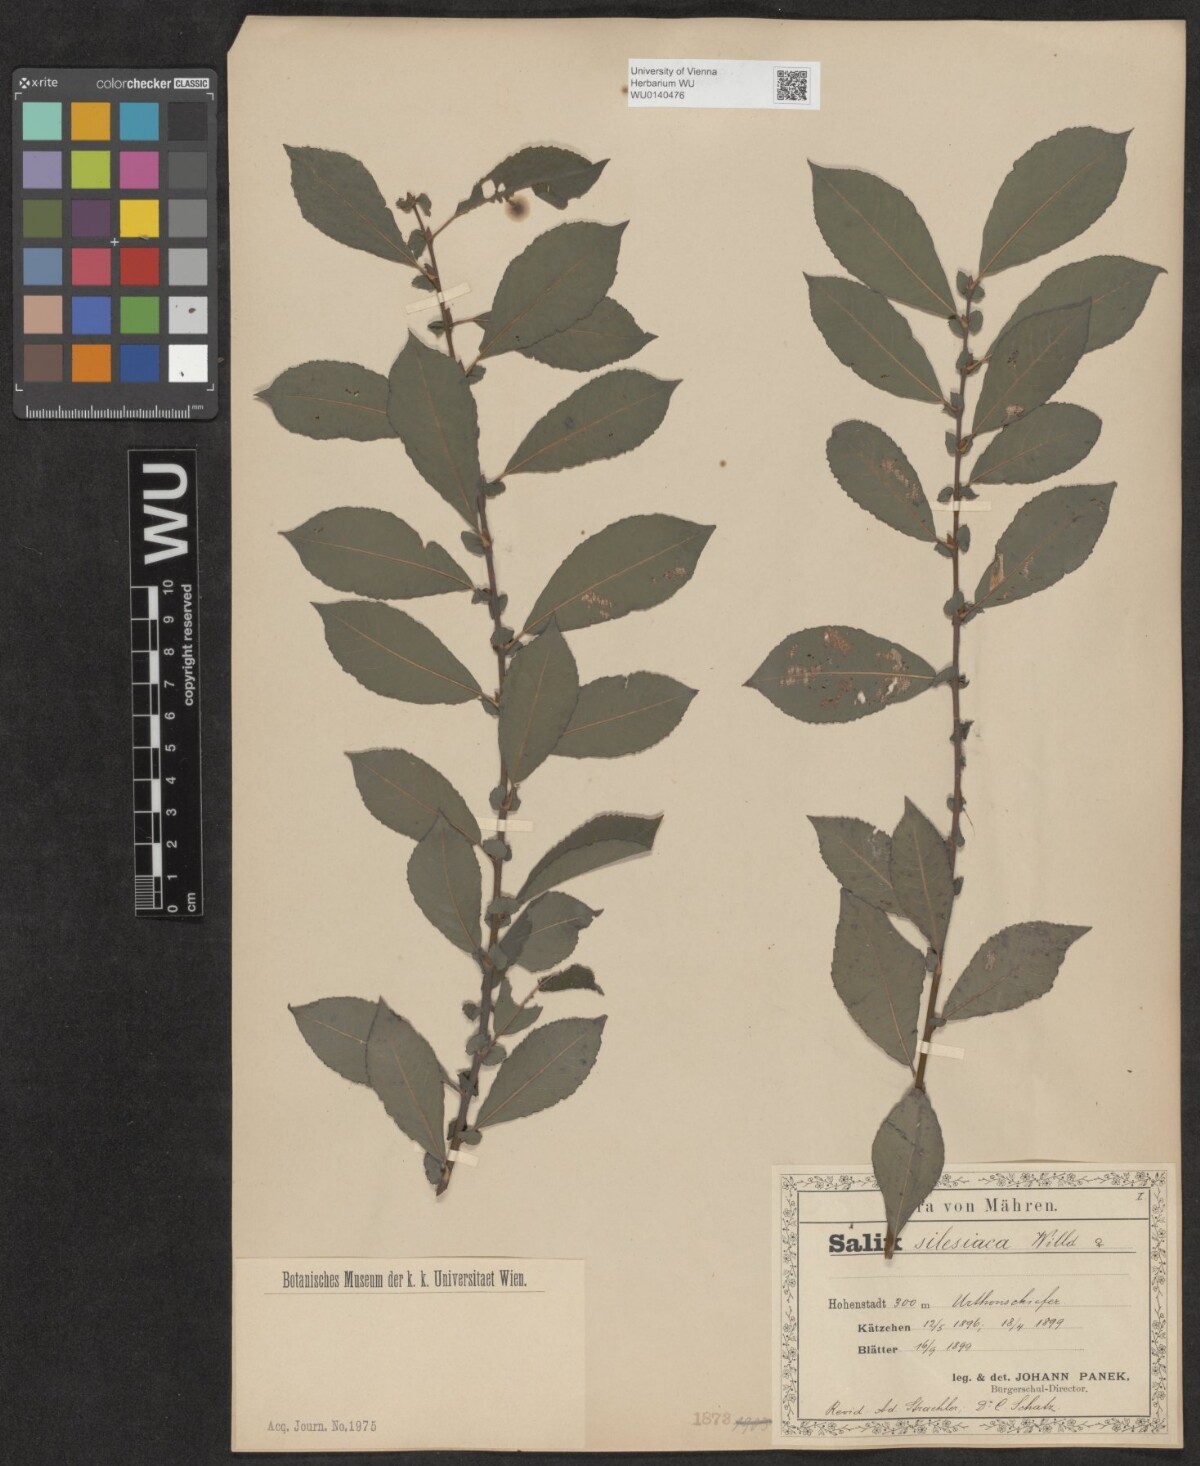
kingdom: Plantae
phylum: Tracheophyta
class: Magnoliopsida
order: Malpighiales
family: Salicaceae
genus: Salix
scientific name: Salix silesiaca
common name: Silesian willow
